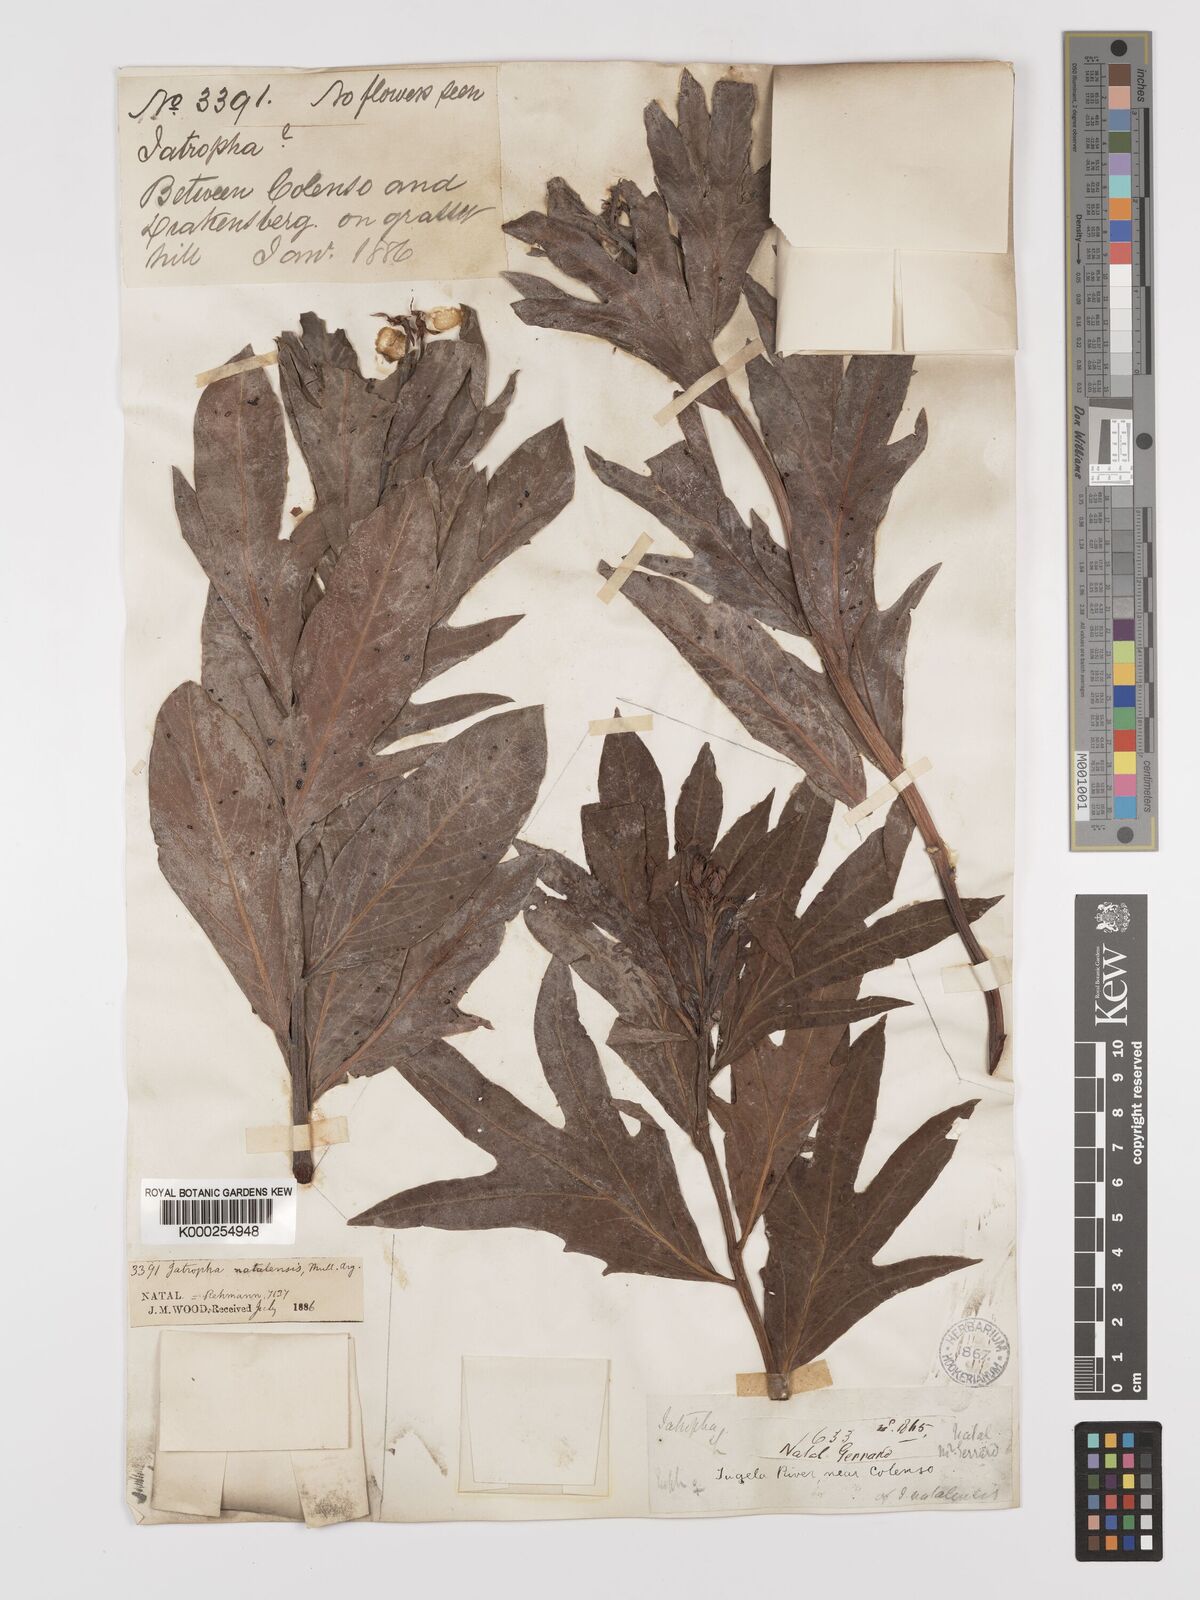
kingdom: Plantae
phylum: Tracheophyta
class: Magnoliopsida
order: Malpighiales
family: Euphorbiaceae
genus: Jatropha
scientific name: Jatropha
